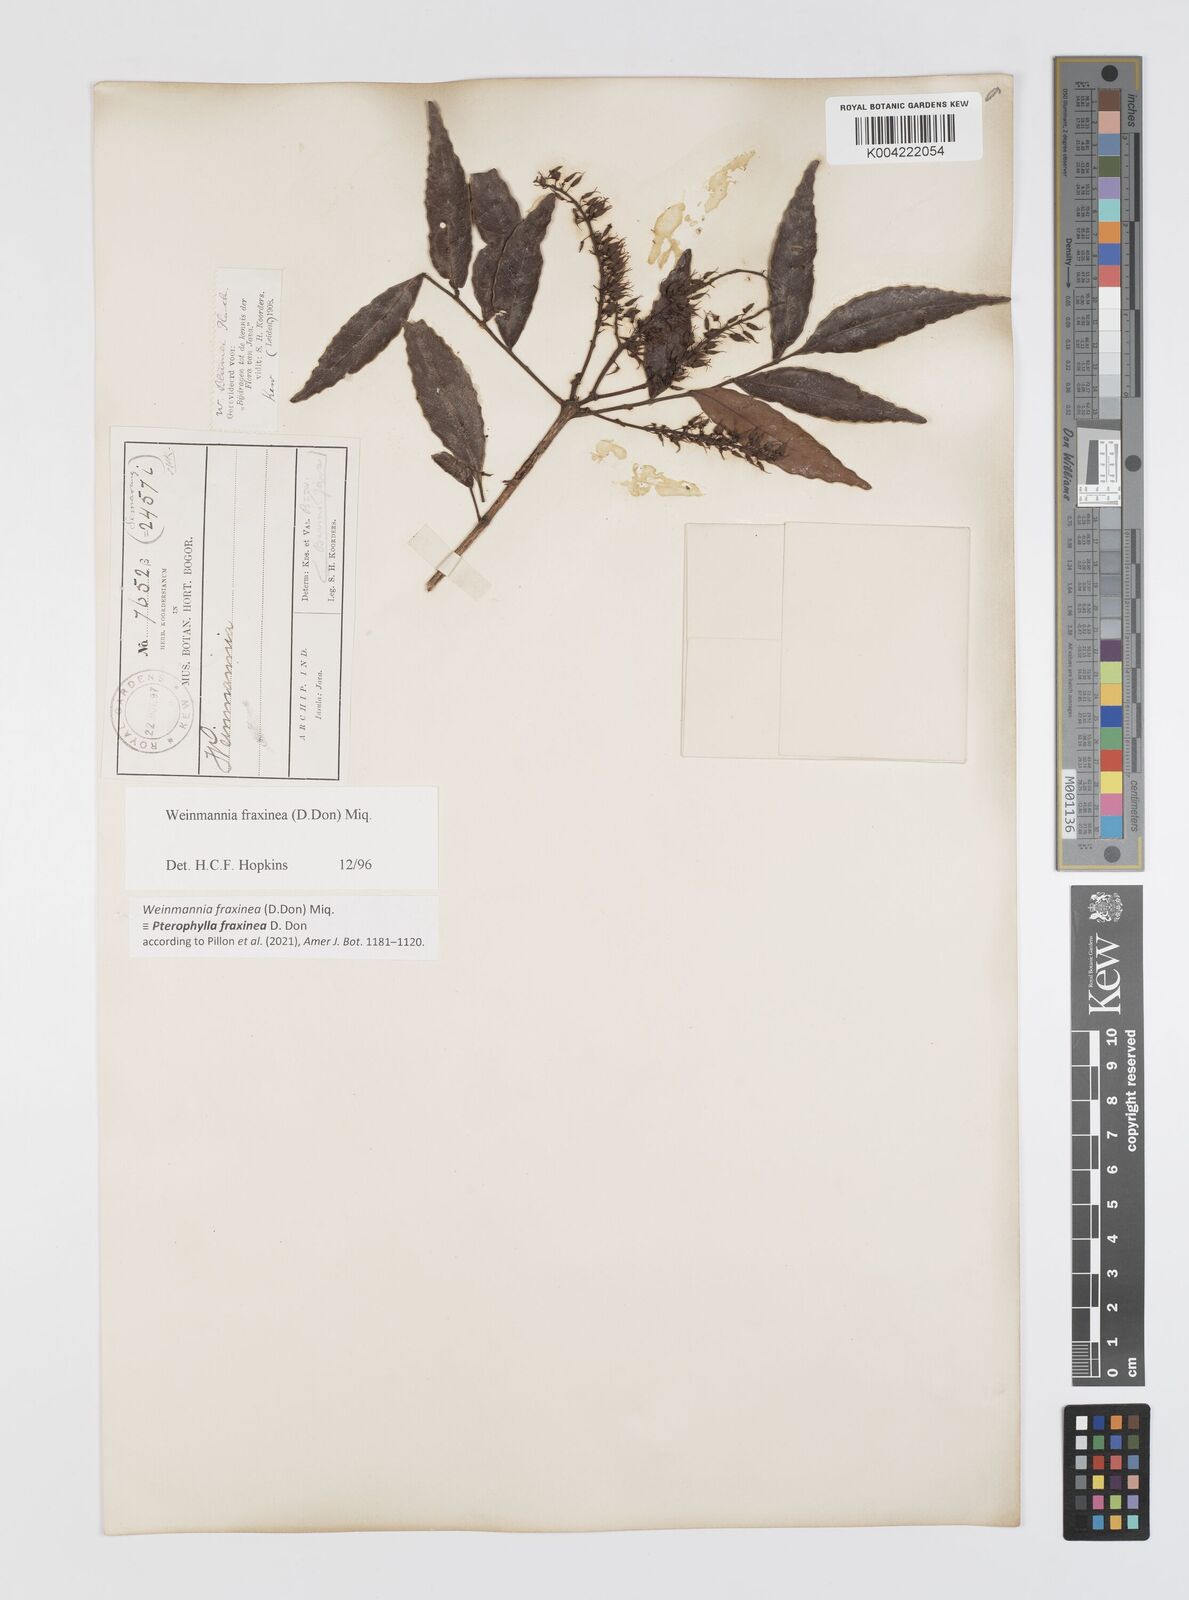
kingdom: Plantae
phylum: Tracheophyta
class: Magnoliopsida
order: Oxalidales
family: Cunoniaceae
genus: Pterophylla
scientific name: Pterophylla fraxinea
